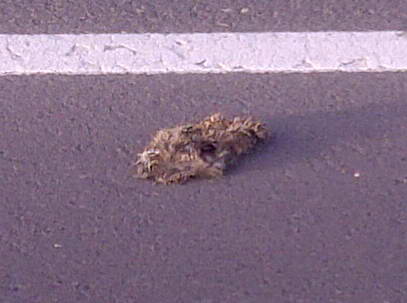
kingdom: Animalia
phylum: Chordata
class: Mammalia
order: Erinaceomorpha
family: Erinaceidae
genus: Erinaceus
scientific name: Erinaceus
